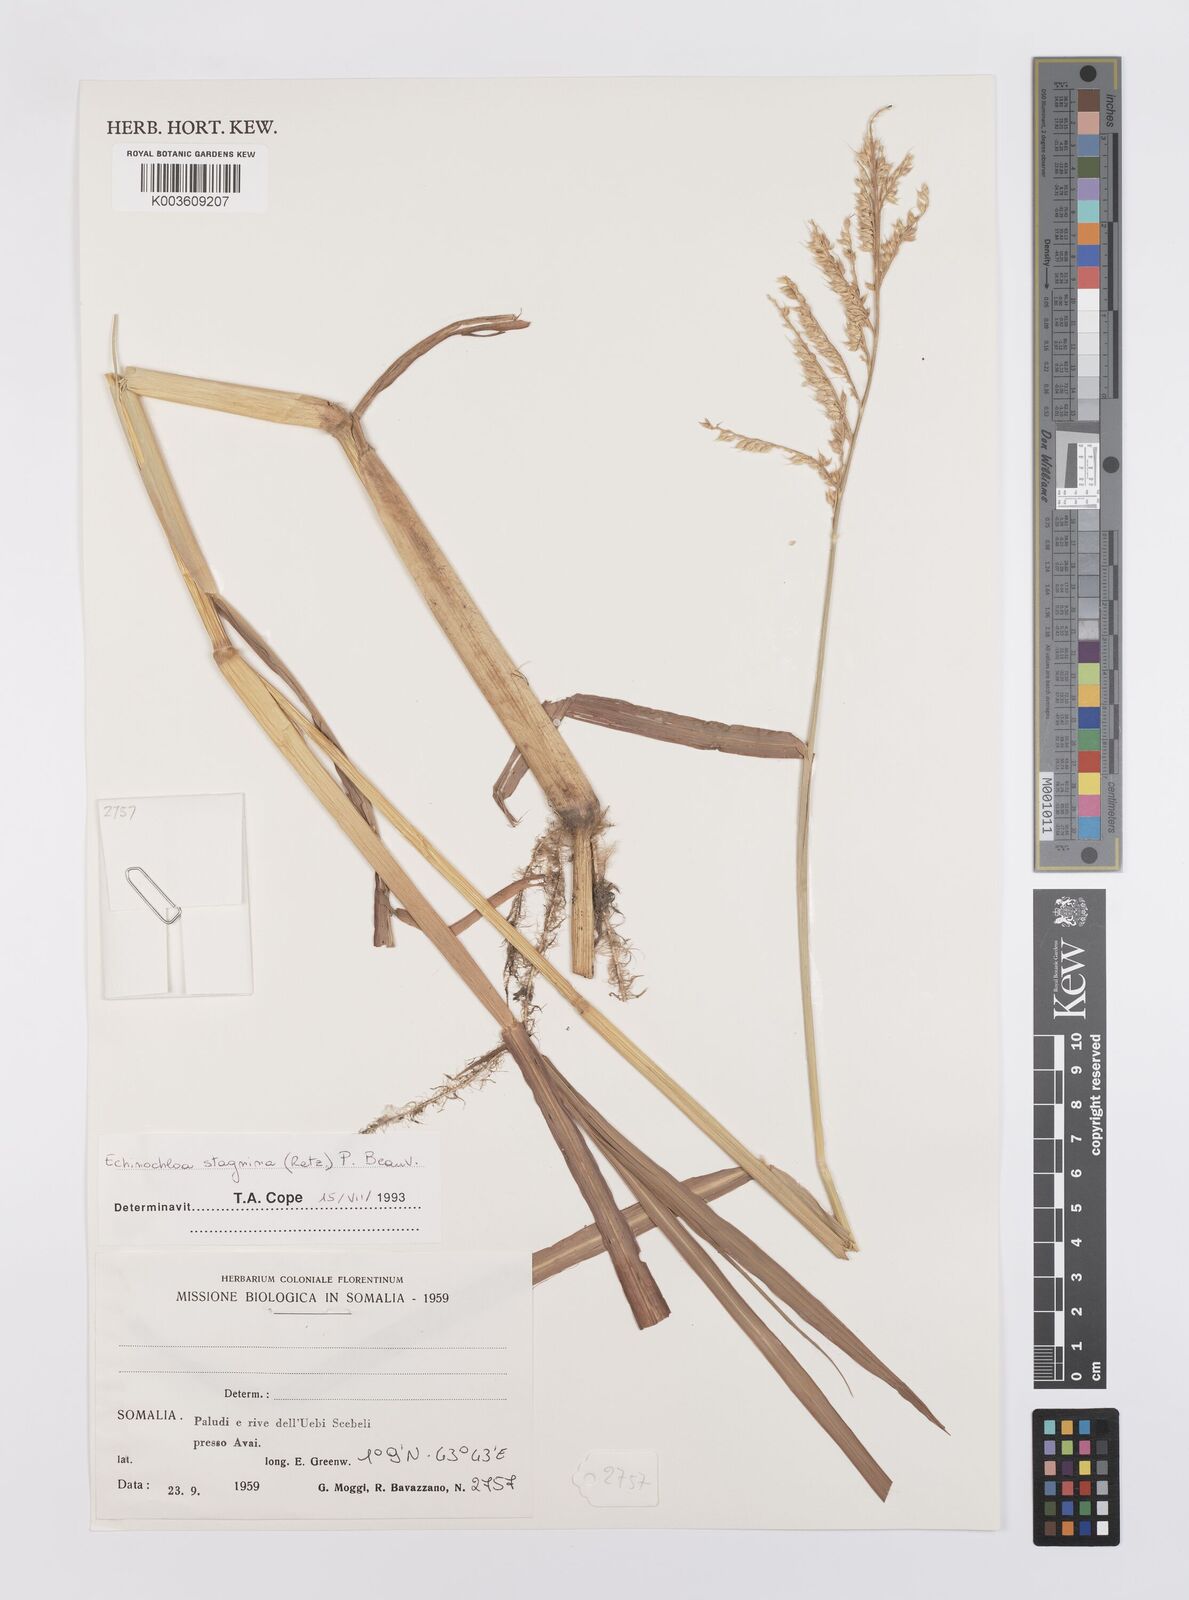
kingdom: Plantae
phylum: Tracheophyta
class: Liliopsida
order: Poales
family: Poaceae
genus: Echinochloa
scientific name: Echinochloa stagnina
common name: Burgu grass
